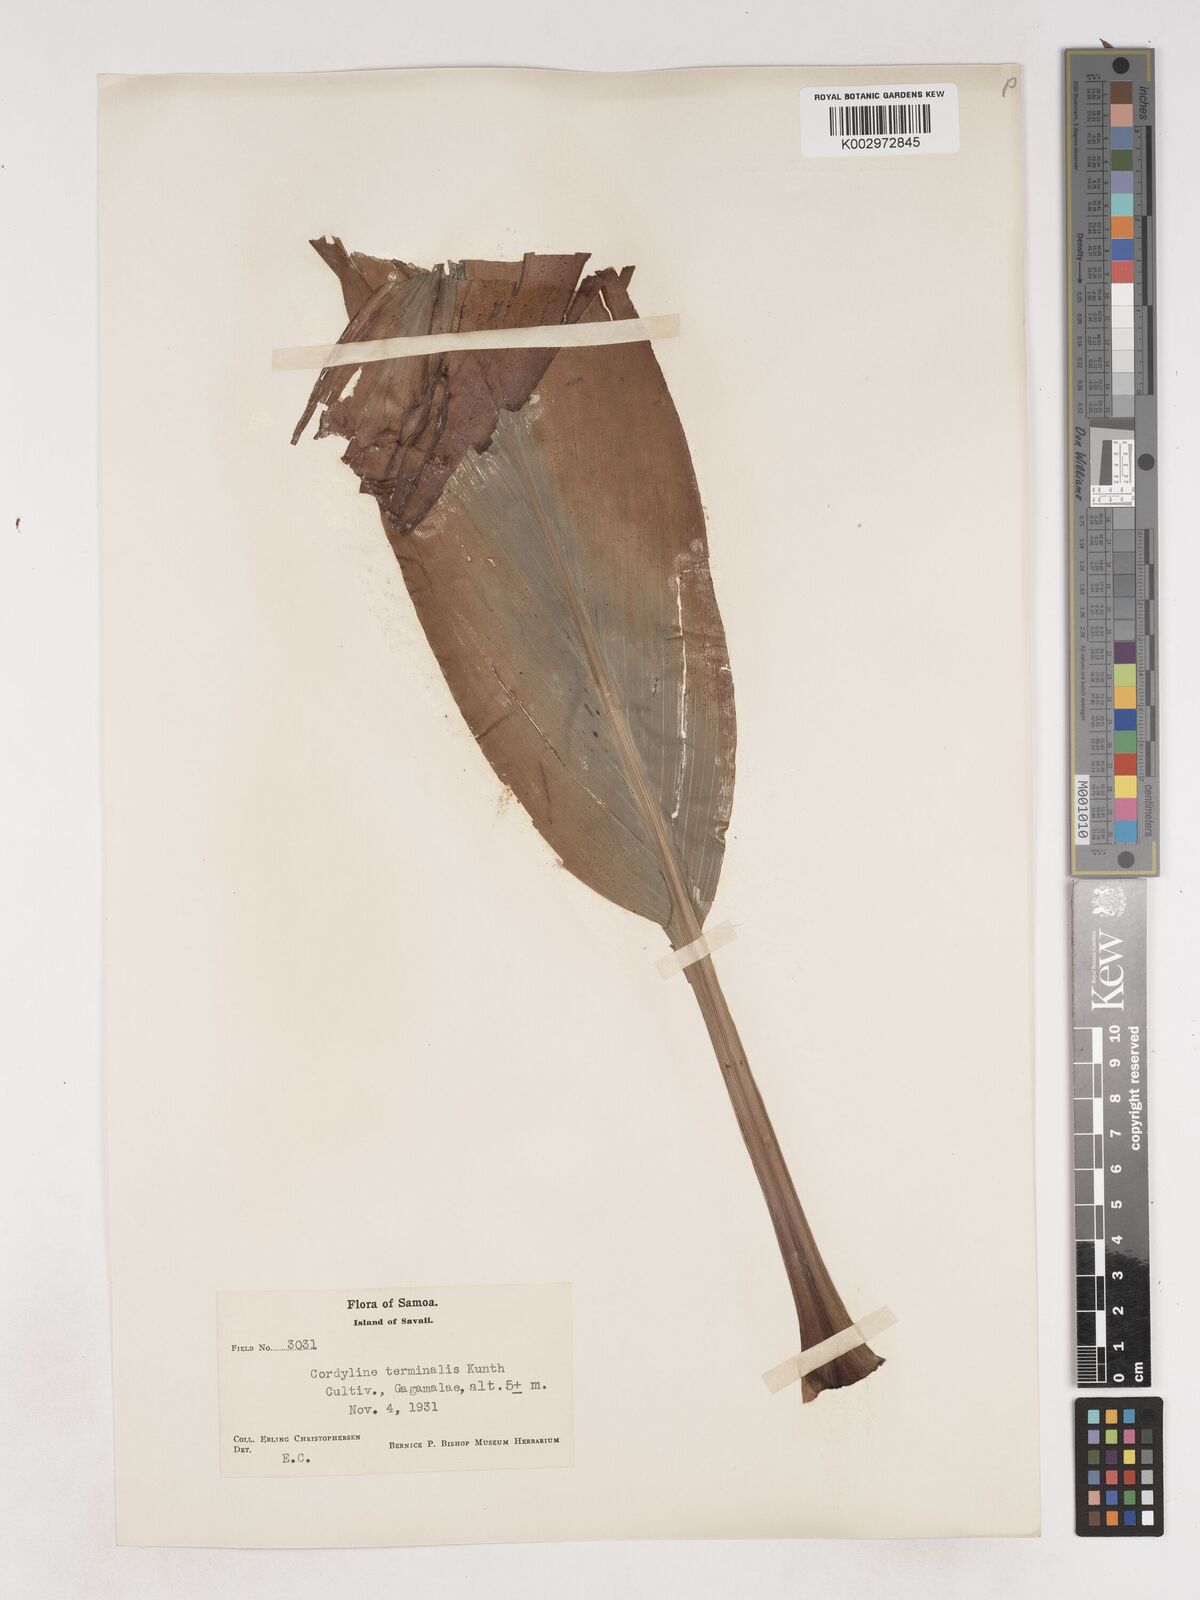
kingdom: Plantae
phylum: Tracheophyta
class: Liliopsida
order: Asparagales
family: Asparagaceae
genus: Cordyline
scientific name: Cordyline fruticosa
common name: Good-luck-plant
